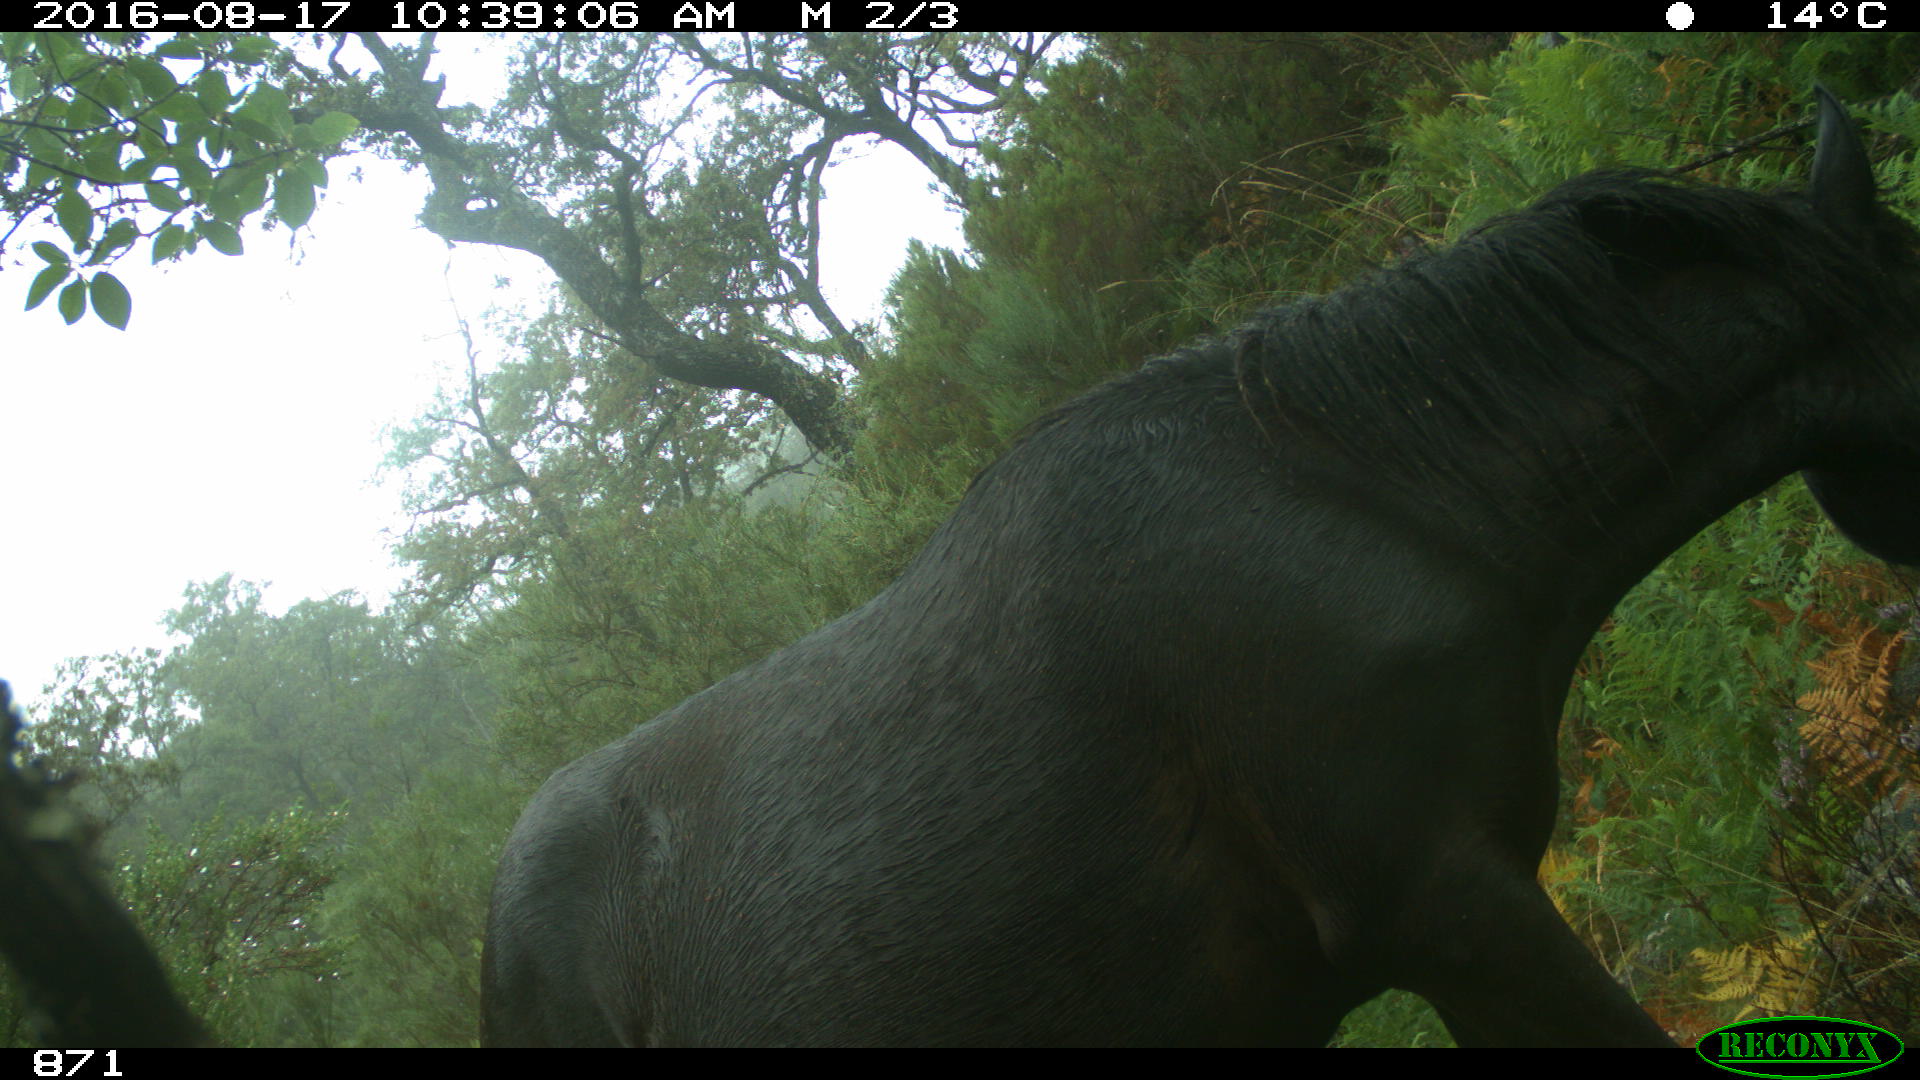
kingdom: Animalia
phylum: Chordata
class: Mammalia
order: Perissodactyla
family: Equidae
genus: Equus
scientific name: Equus caballus
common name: Horse
